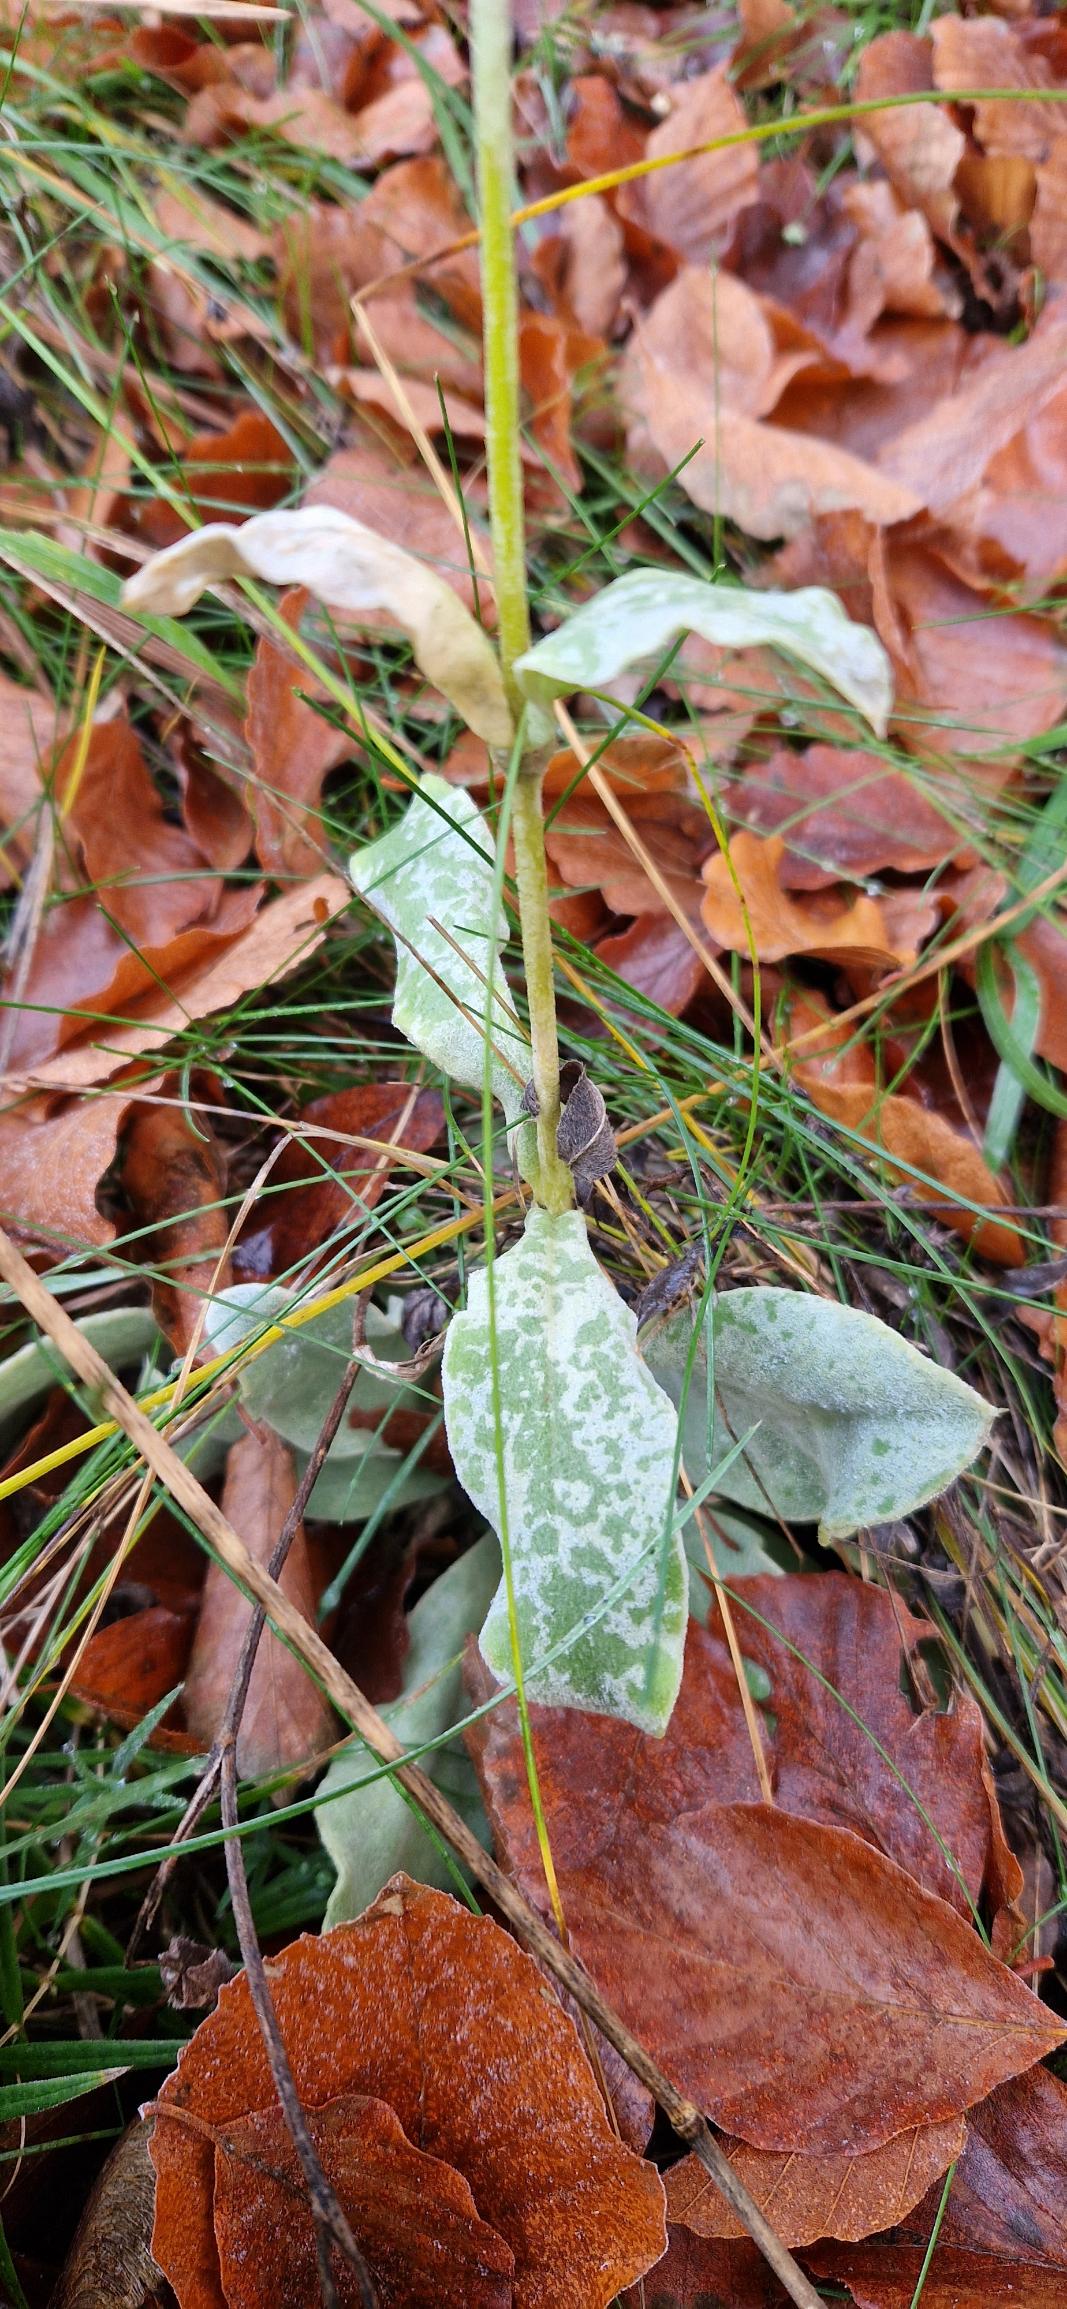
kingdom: Plantae
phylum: Tracheophyta
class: Magnoliopsida
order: Caryophyllales
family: Caryophyllaceae
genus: Silene
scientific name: Silene coronaria
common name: Fiksernellike
